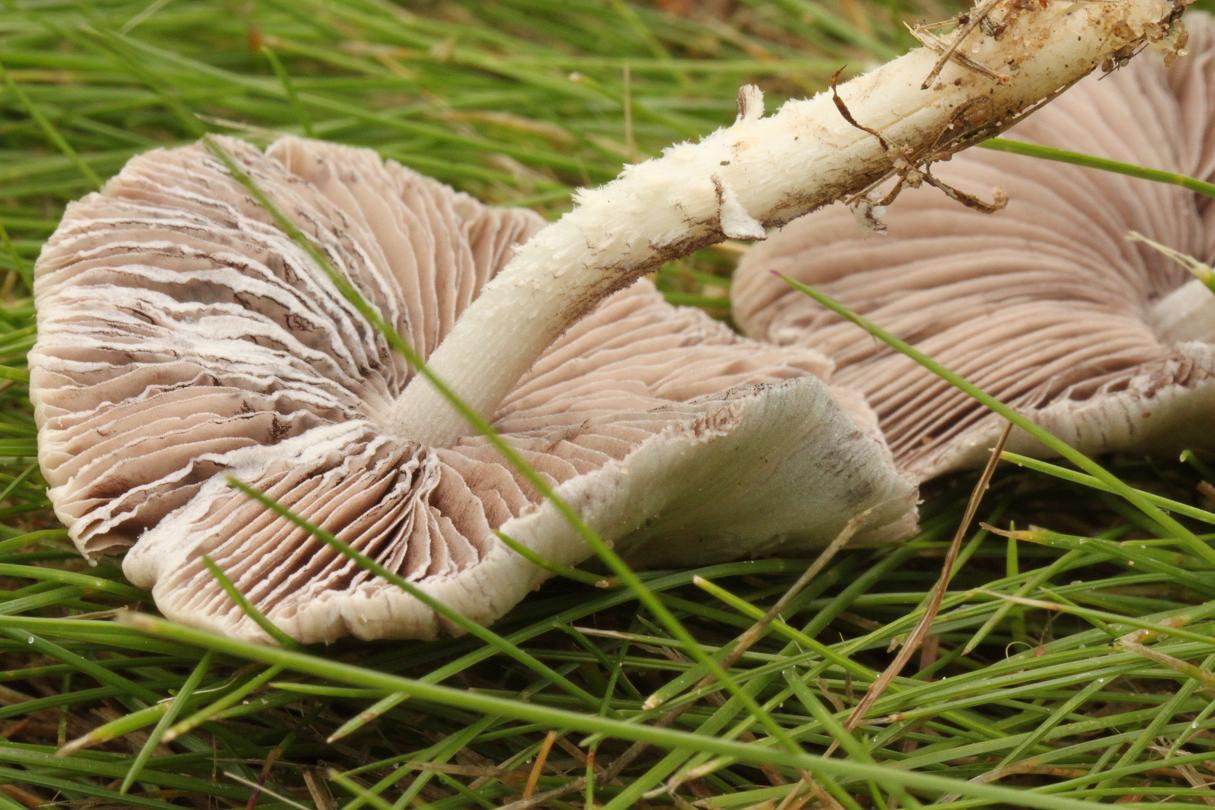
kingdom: Fungi
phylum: Basidiomycota
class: Agaricomycetes
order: Agaricales
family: Psathyrellaceae
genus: Candolleomyces
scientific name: Candolleomyces candolleanus
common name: Candolles mørkhat
